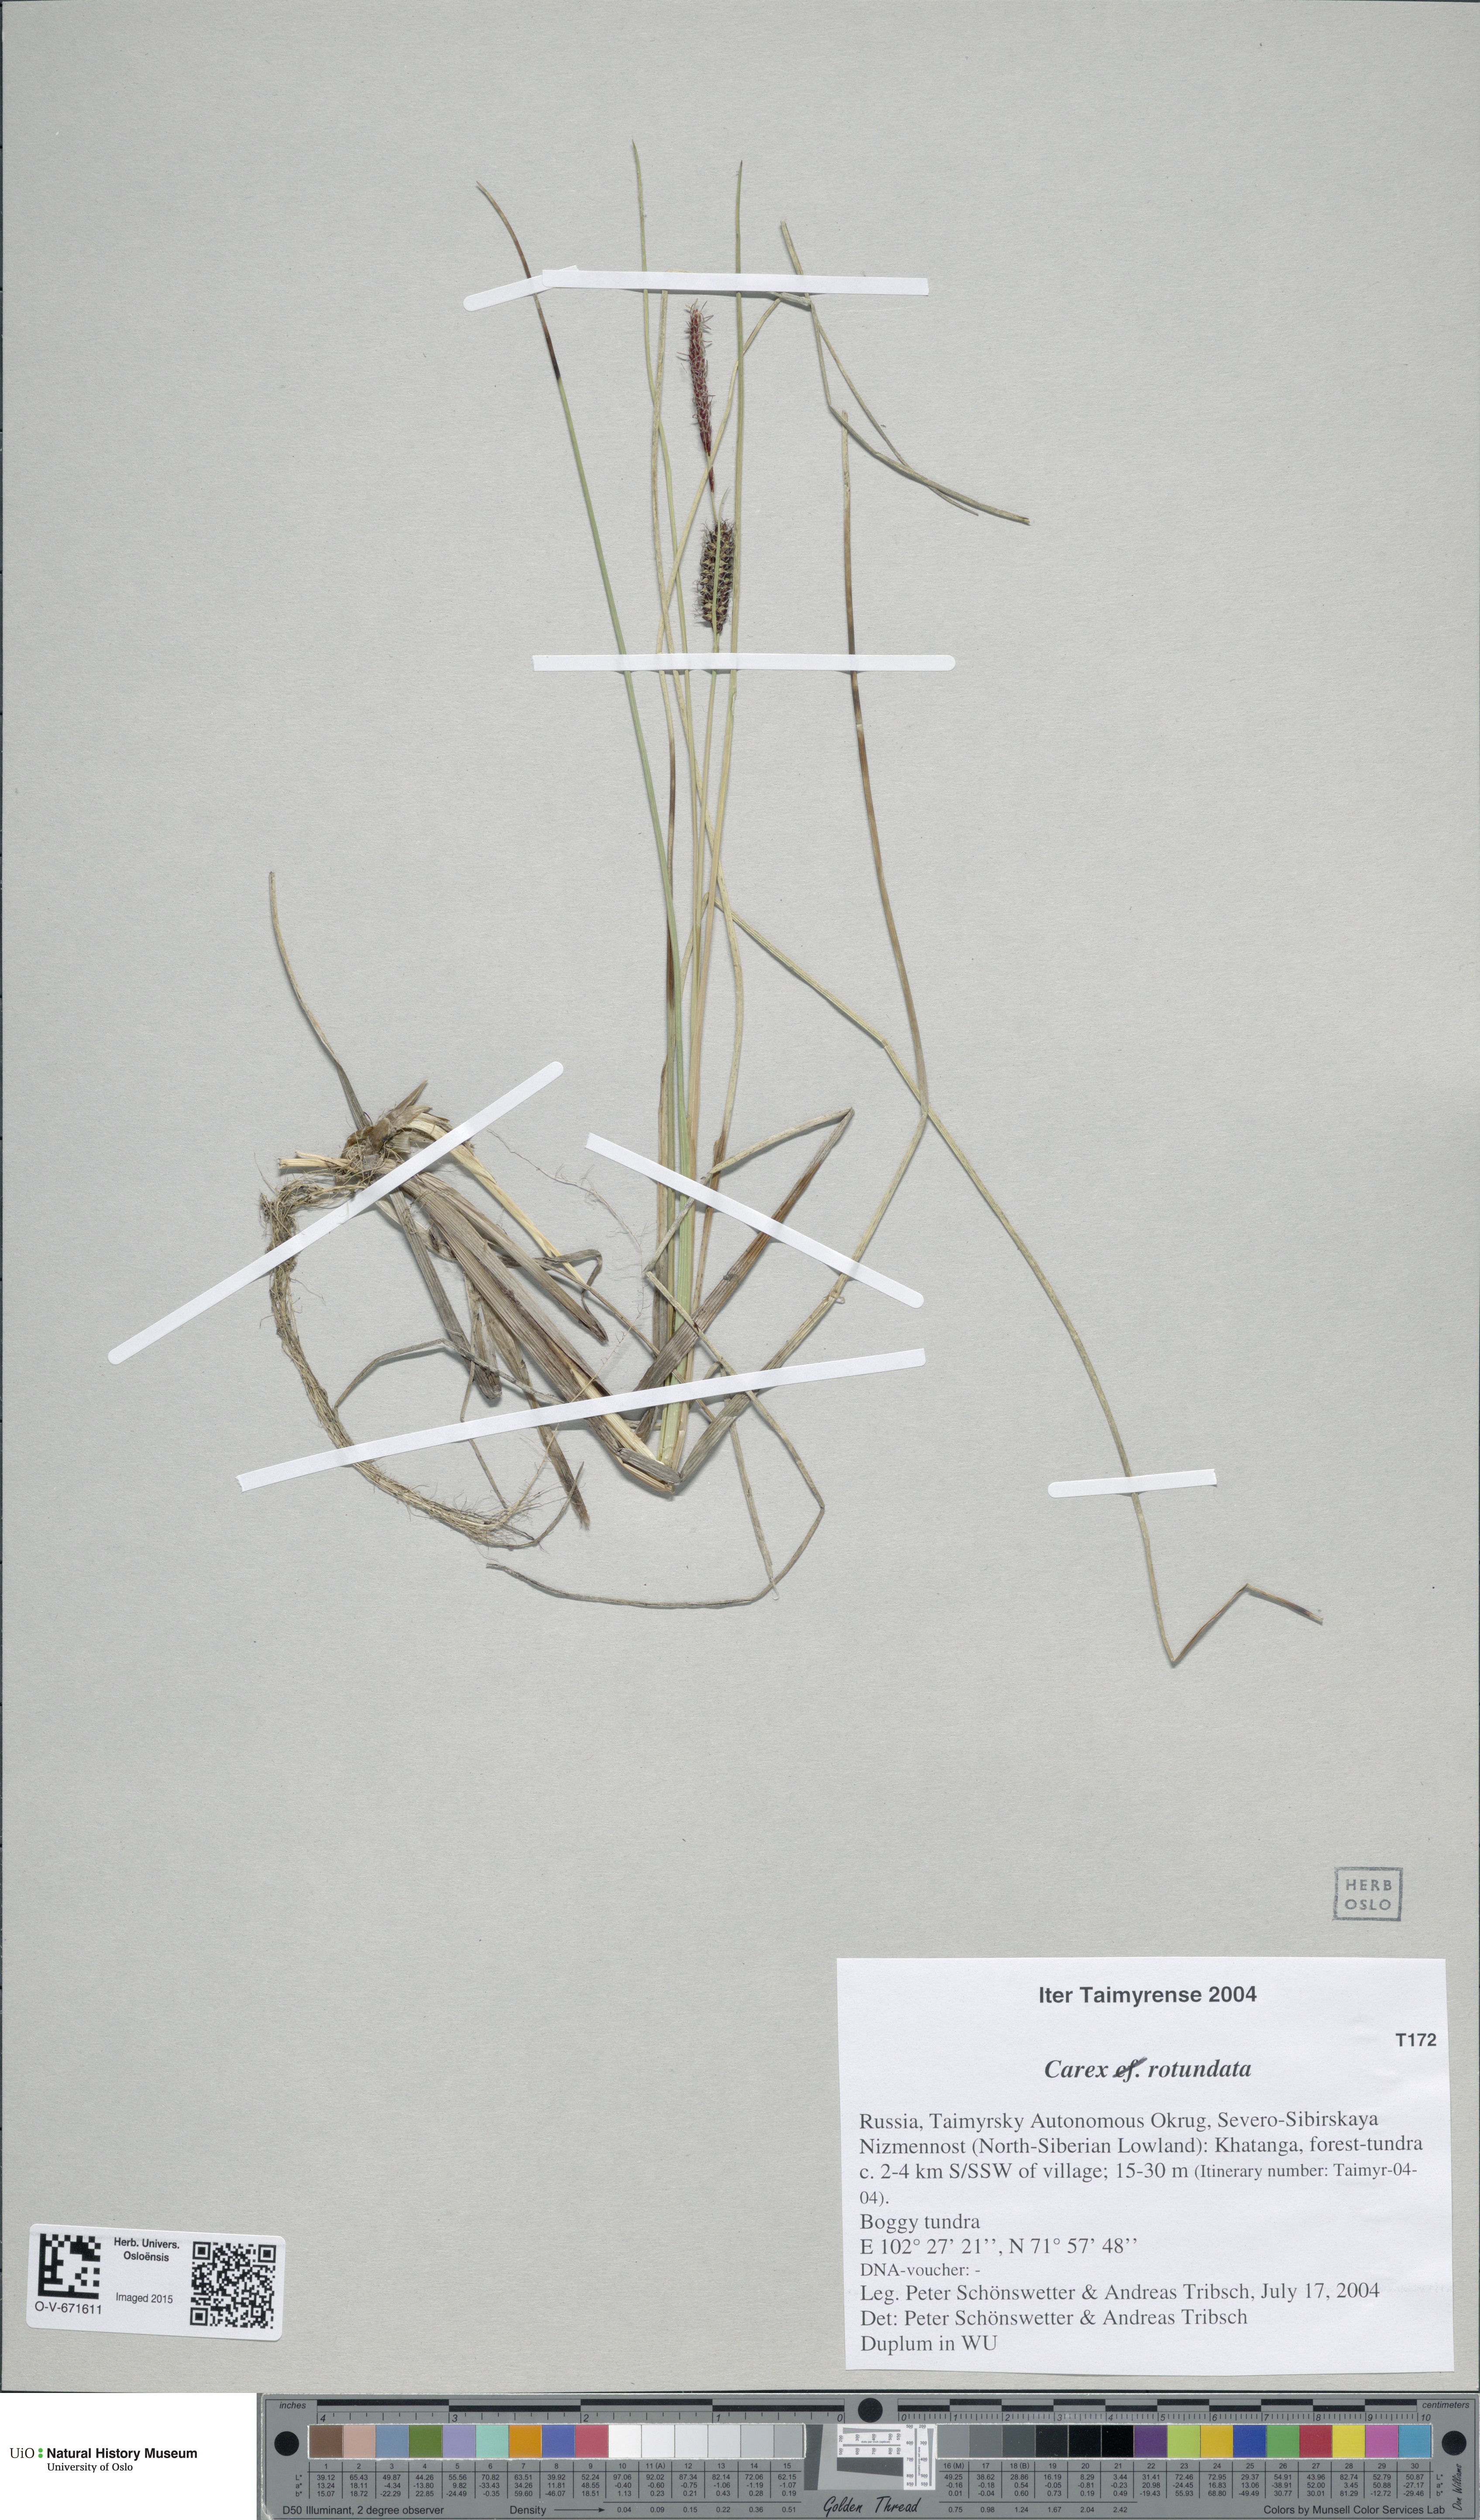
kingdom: Plantae
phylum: Tracheophyta
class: Liliopsida
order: Poales
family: Cyperaceae
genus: Carex
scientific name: Carex rotundata
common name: Round-fruited sedge
